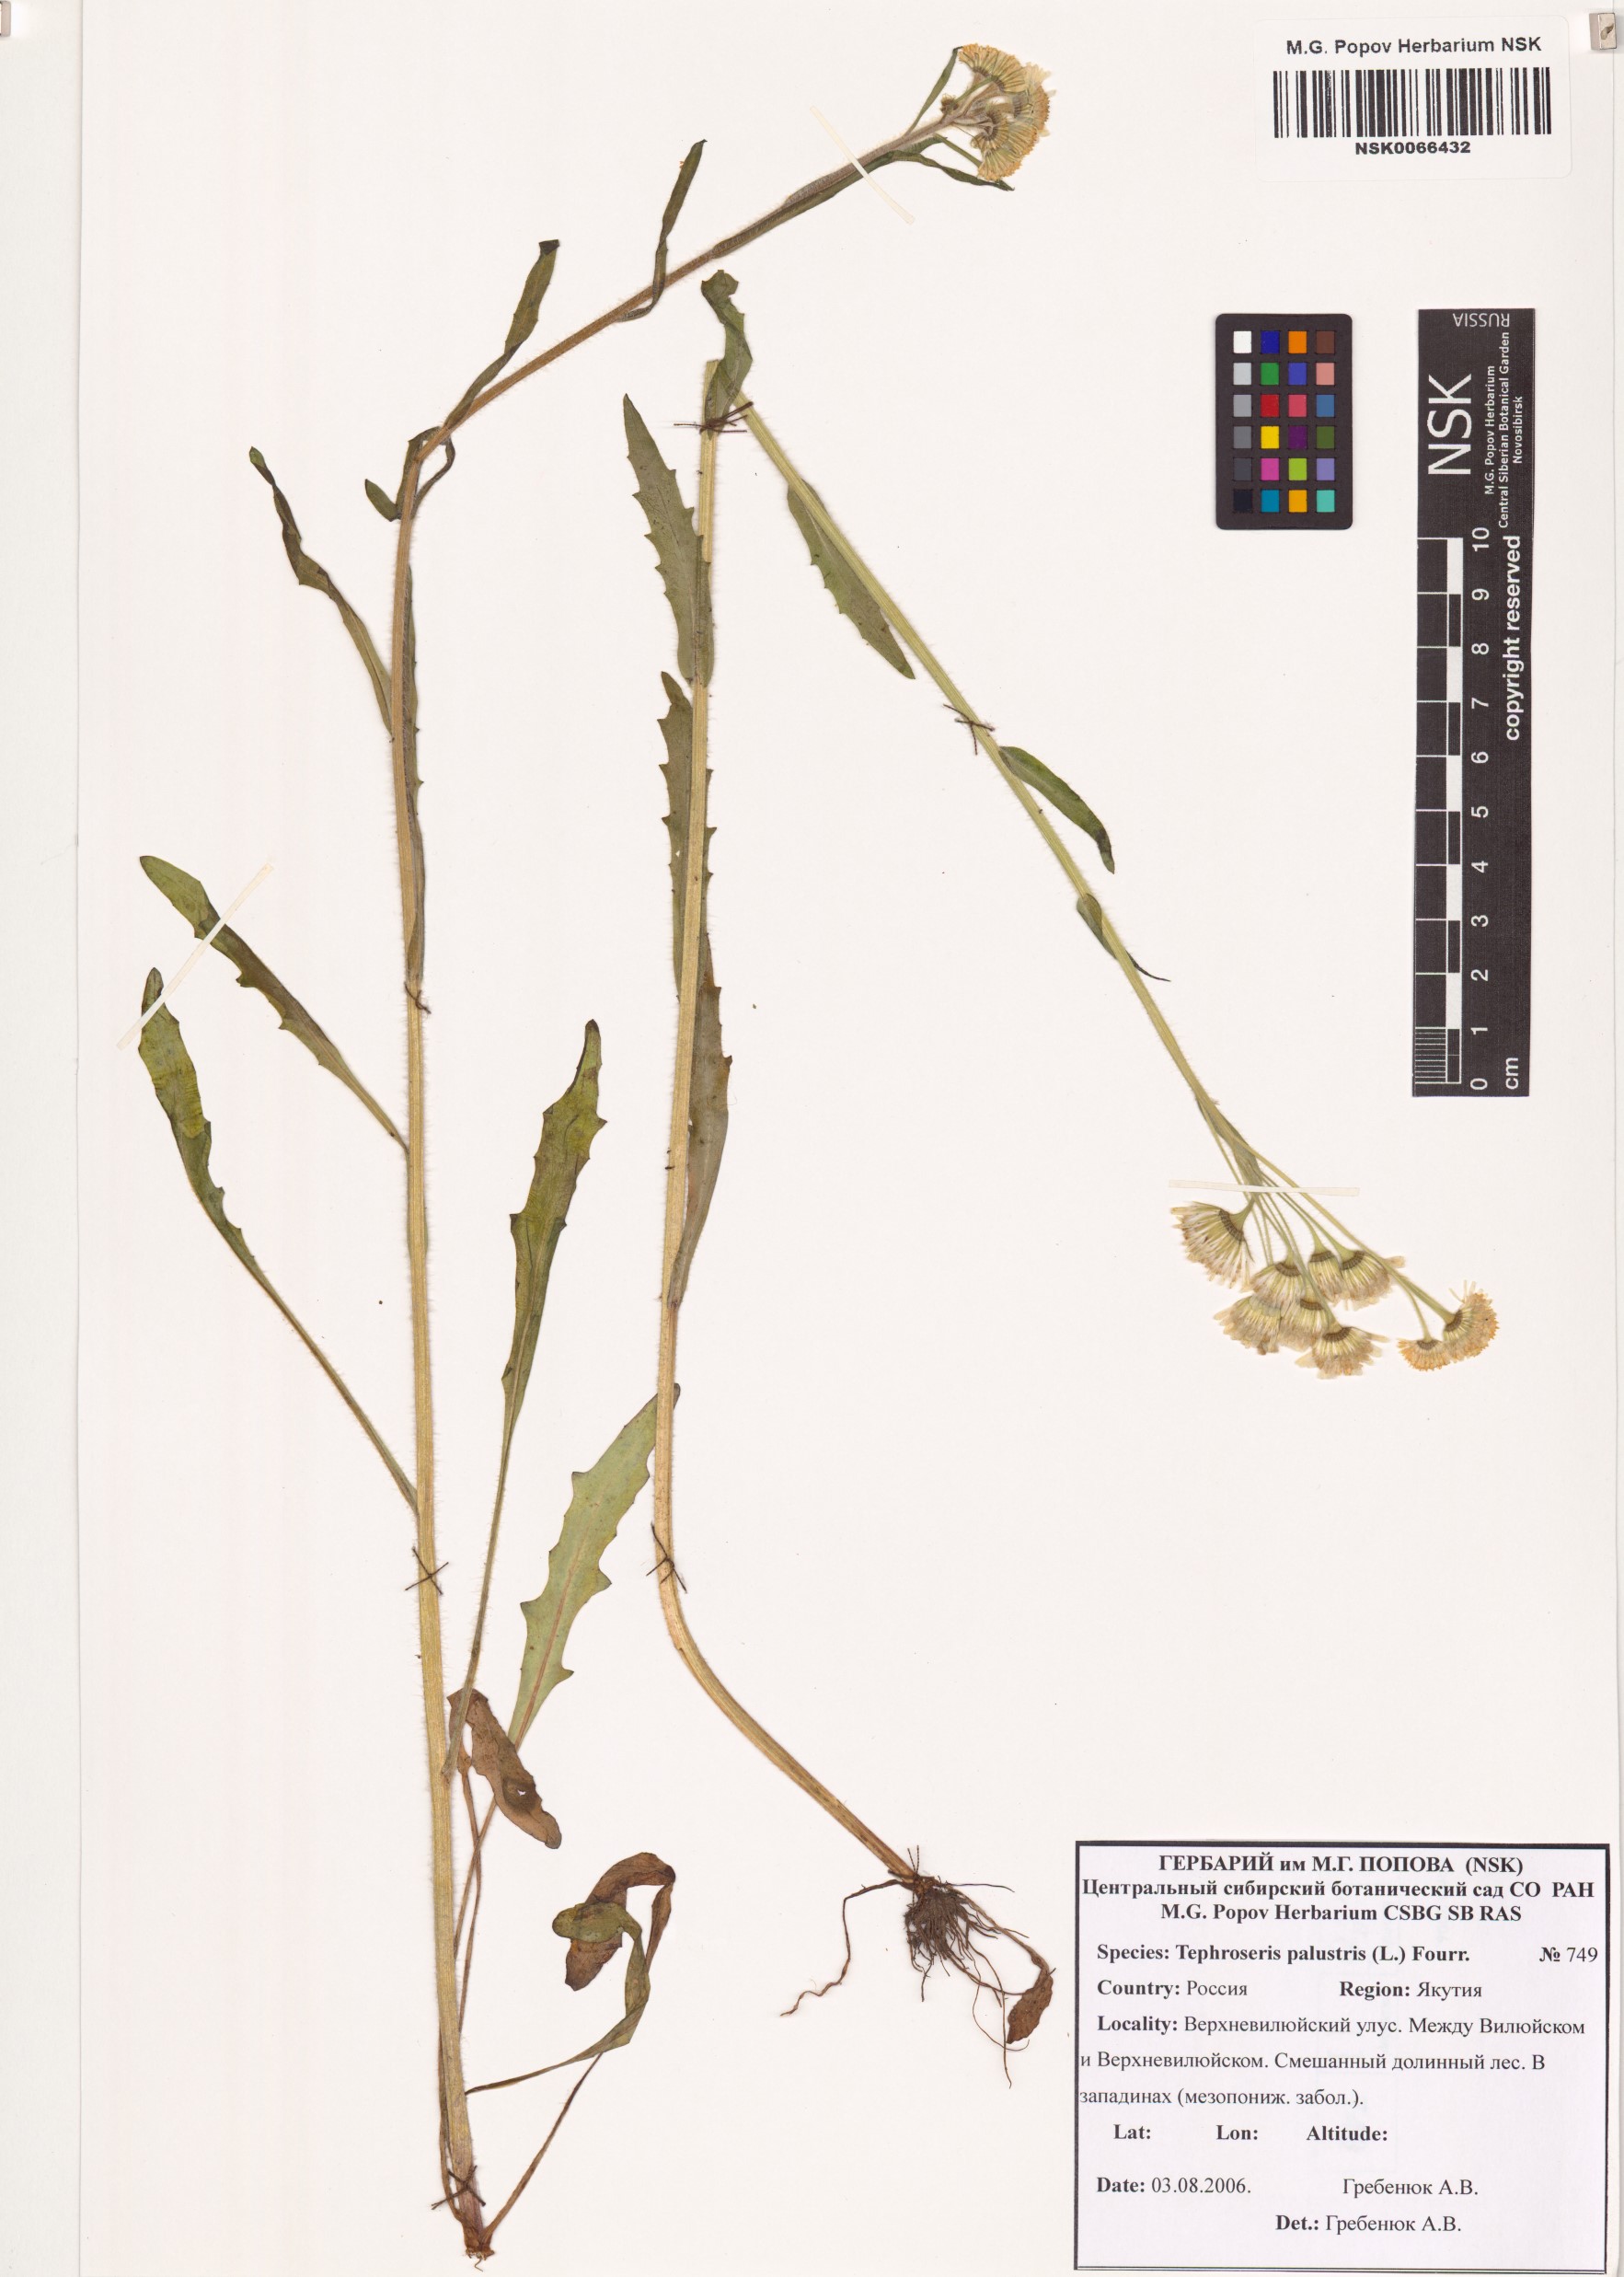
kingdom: Plantae
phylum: Tracheophyta
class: Magnoliopsida
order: Asterales
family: Asteraceae
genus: Tephroseris
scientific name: Tephroseris palustris
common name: Marsh fleawort
